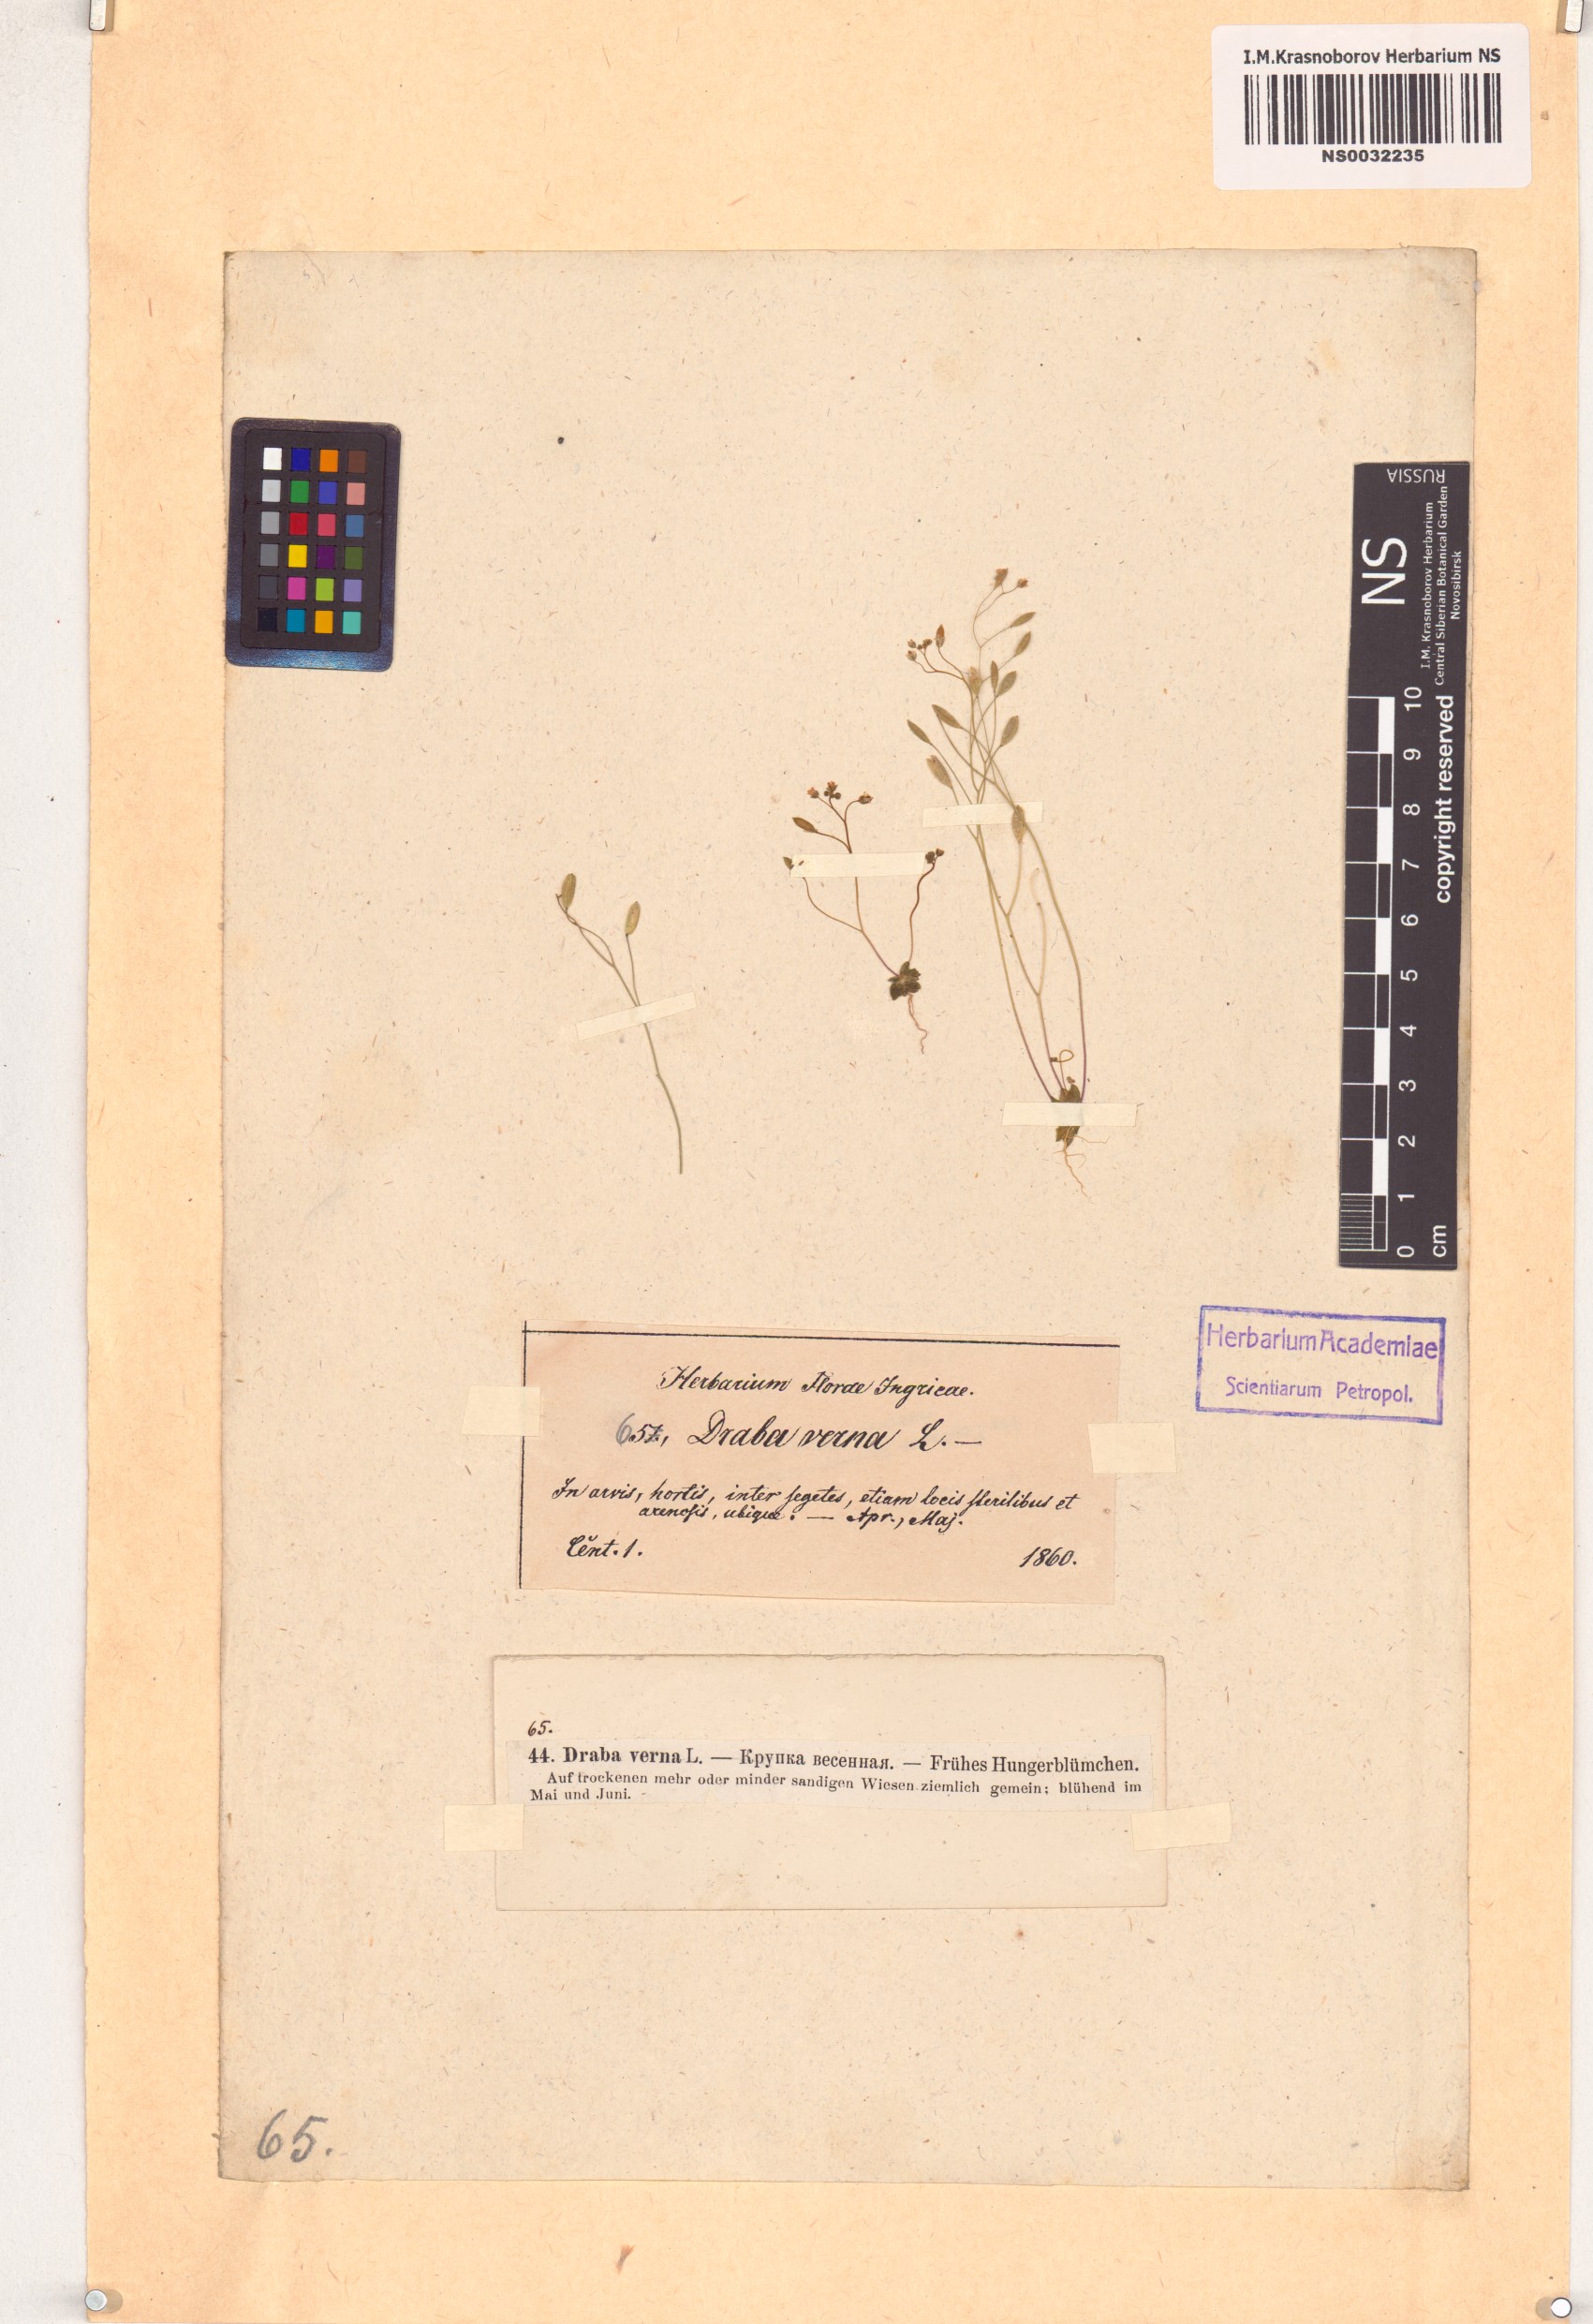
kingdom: Plantae
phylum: Tracheophyta
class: Magnoliopsida
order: Brassicales
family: Brassicaceae
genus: Draba
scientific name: Draba verna
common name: Spring draba
